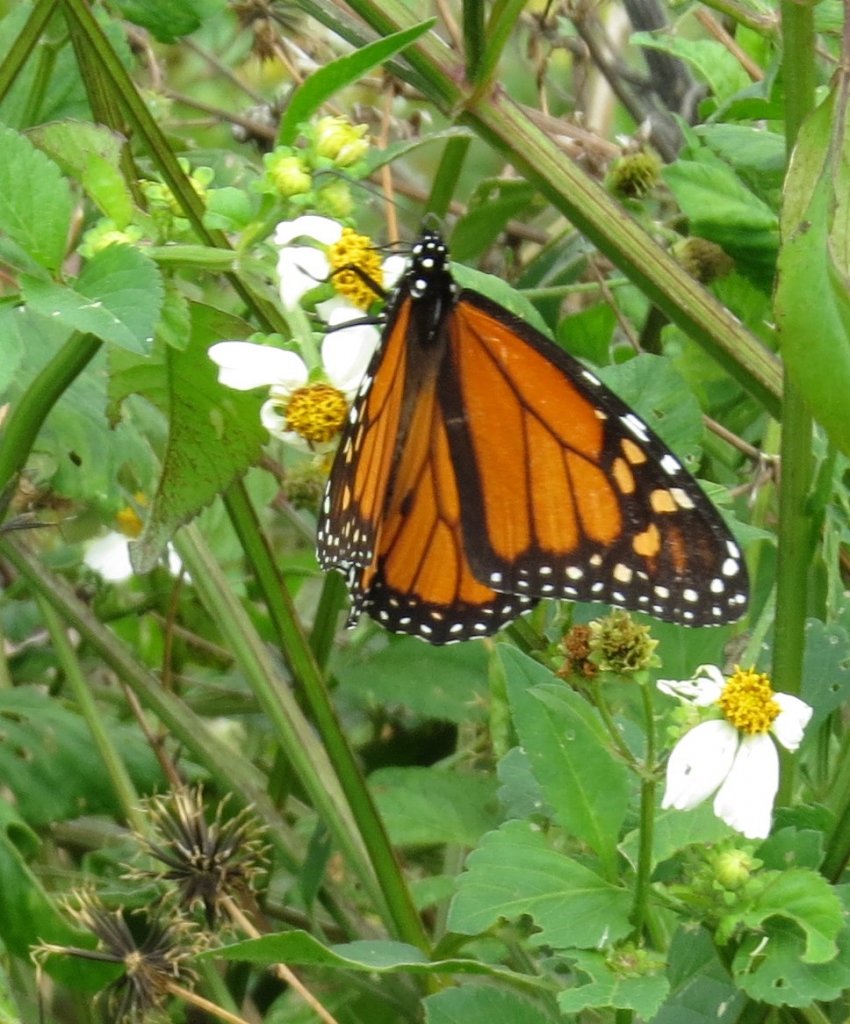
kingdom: Animalia
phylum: Arthropoda
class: Insecta
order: Lepidoptera
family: Nymphalidae
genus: Danaus
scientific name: Danaus plexippus
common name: Monarch
